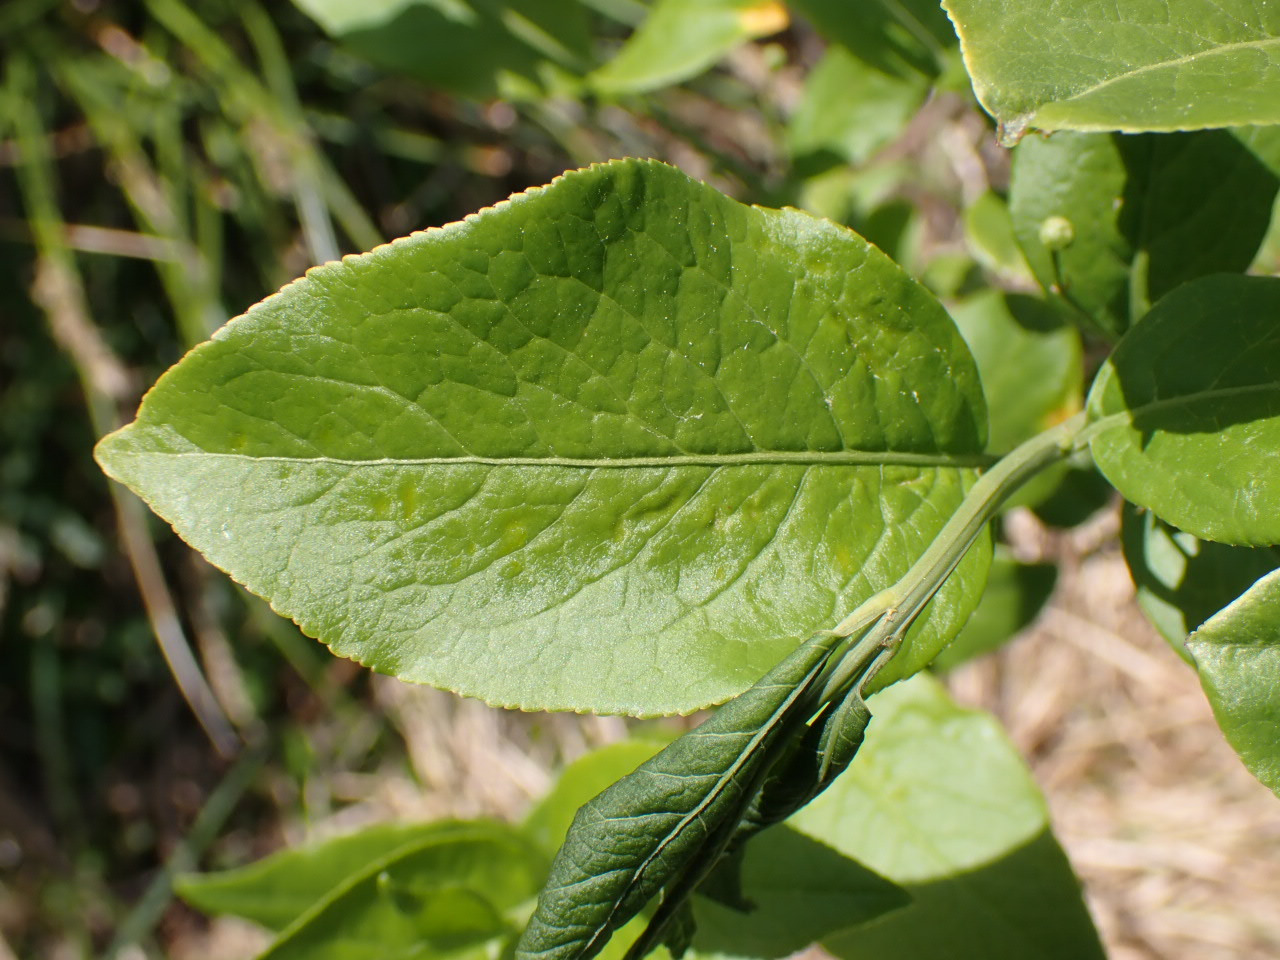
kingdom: Plantae
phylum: Tracheophyta
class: Magnoliopsida
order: Celastrales
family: Celastraceae
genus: Euonymus
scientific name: Euonymus europaeus
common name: Benved
